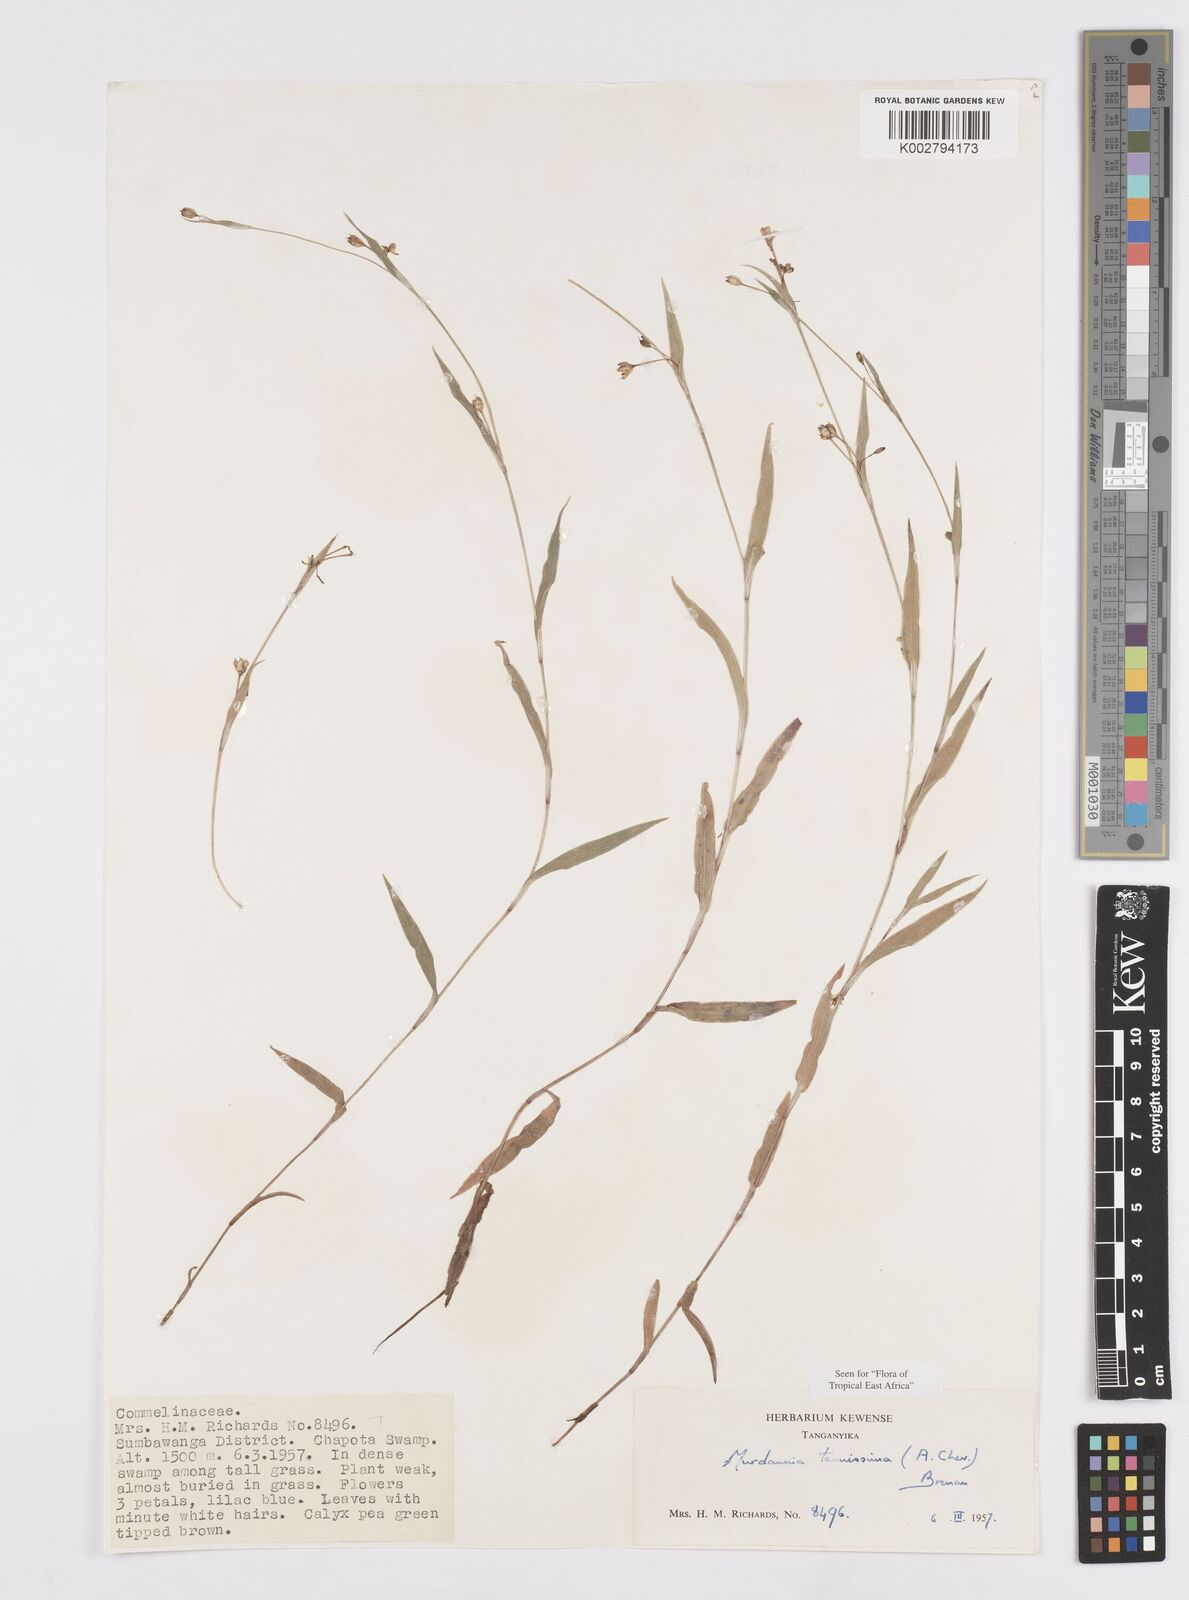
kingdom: Plantae
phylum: Tracheophyta
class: Liliopsida
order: Commelinales
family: Commelinaceae
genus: Murdannia
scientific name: Murdannia tenuissima
